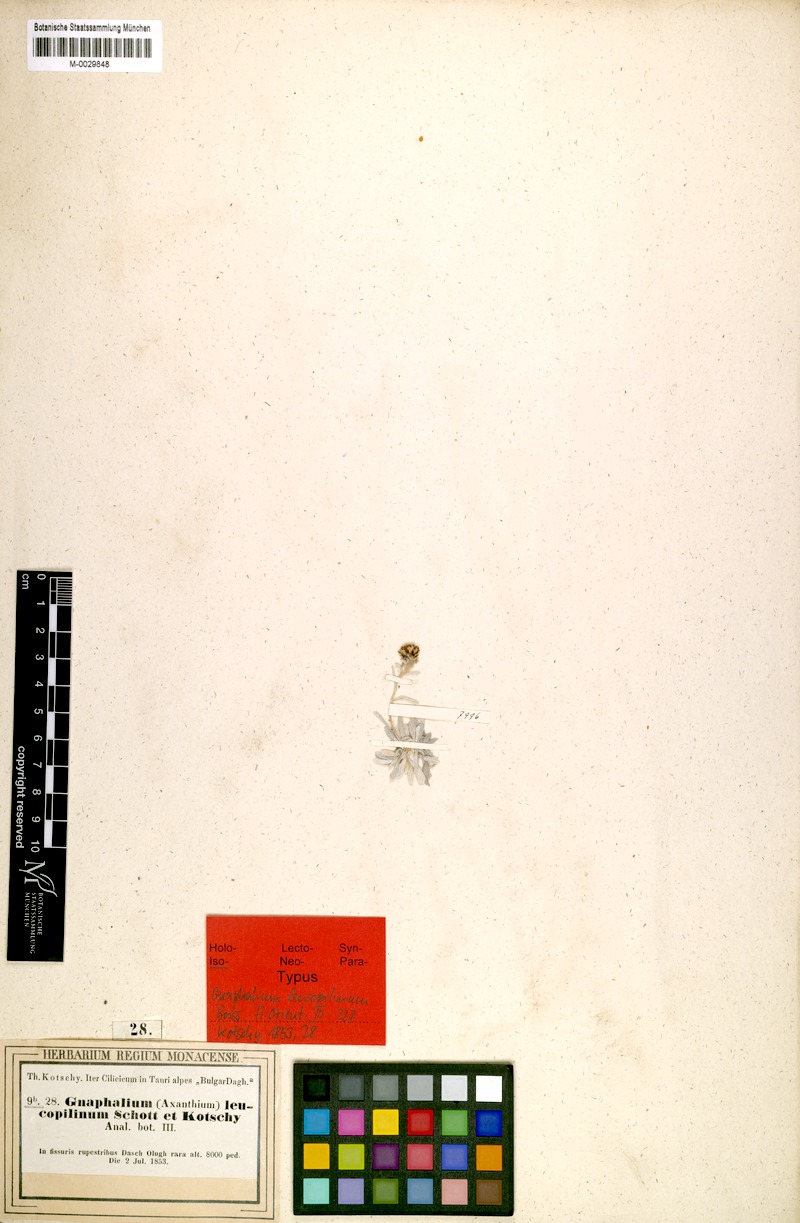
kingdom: Plantae
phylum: Tracheophyta
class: Magnoliopsida
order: Asterales
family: Asteraceae
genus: Omalotheca
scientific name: Omalotheca leucopilina
